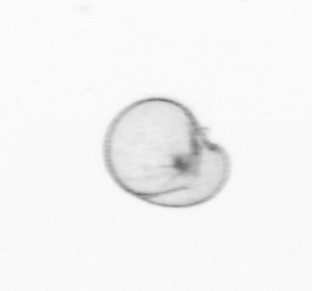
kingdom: Chromista
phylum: Myzozoa
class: Dinophyceae
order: Noctilucales
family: Noctilucaceae
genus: Noctiluca
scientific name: Noctiluca scintillans
